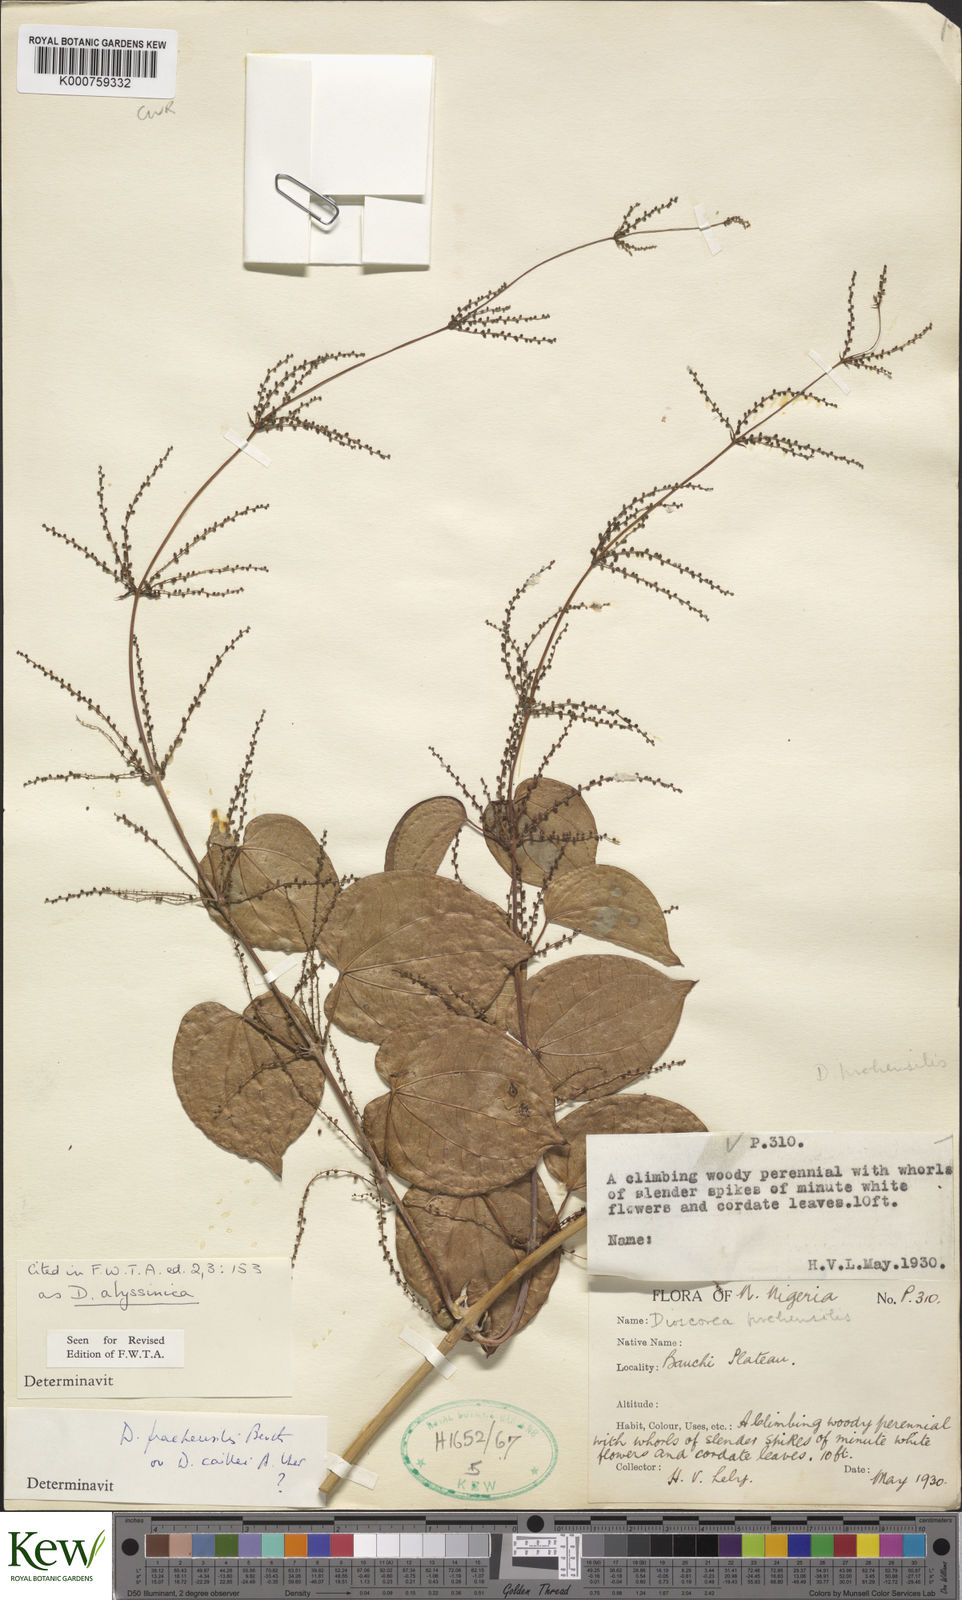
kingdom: Plantae
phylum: Tracheophyta
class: Liliopsida
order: Dioscoreales
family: Dioscoreaceae
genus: Dioscorea
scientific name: Dioscorea praehensilis
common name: Bush yam
